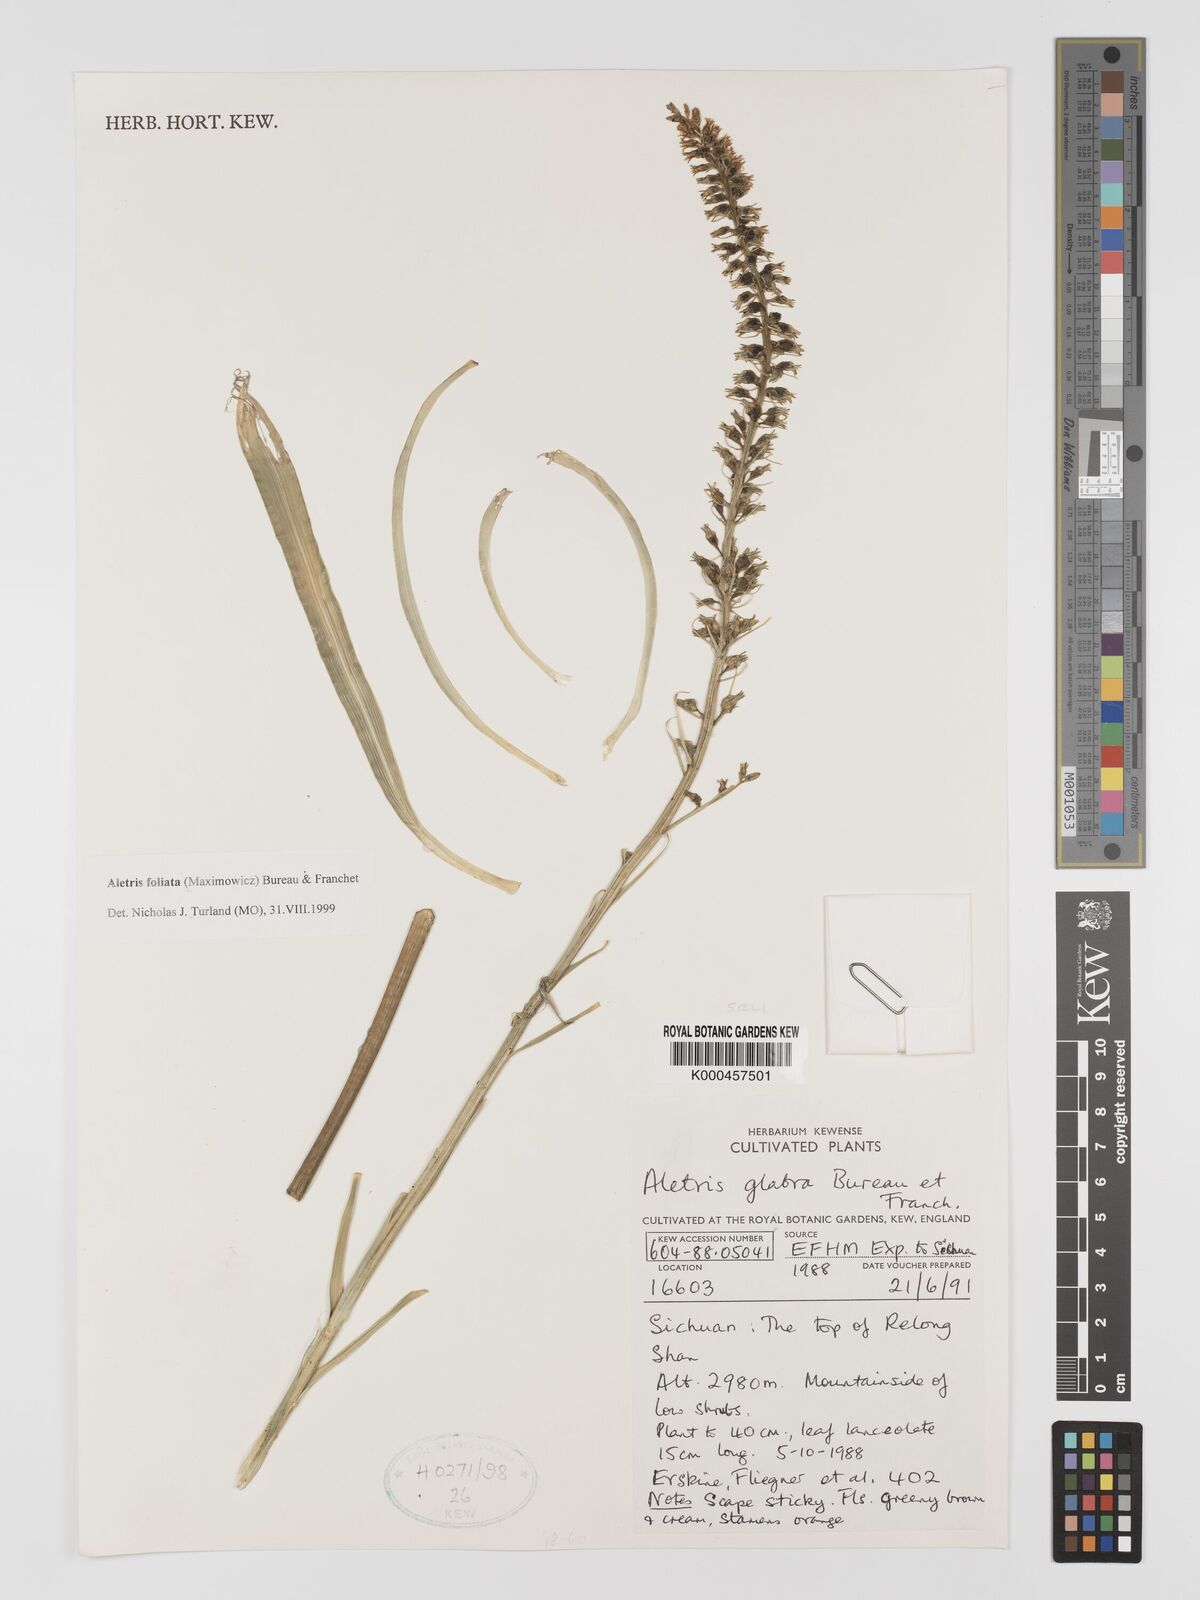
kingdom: Plantae
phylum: Tracheophyta
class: Liliopsida
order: Dioscoreales
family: Nartheciaceae
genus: Aletris
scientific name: Aletris glabra
